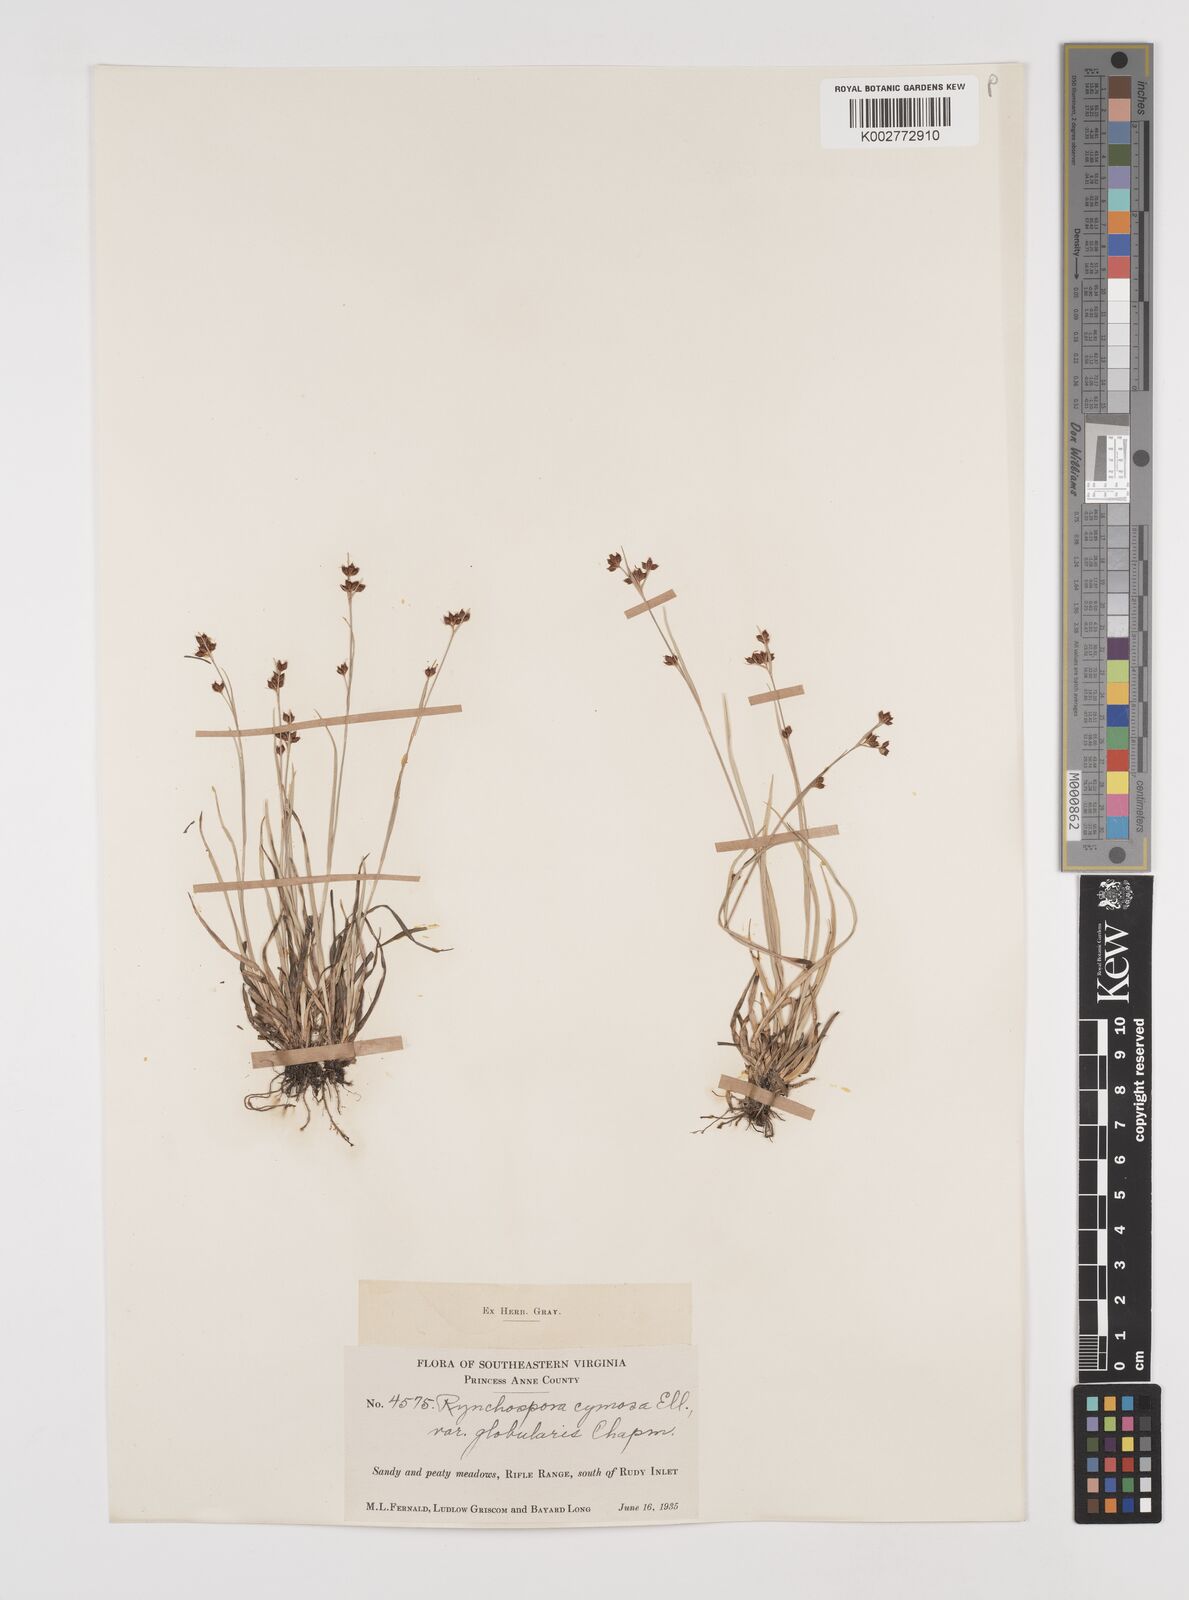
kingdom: Plantae
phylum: Tracheophyta
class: Liliopsida
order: Poales
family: Cyperaceae
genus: Scirpus
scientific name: Scirpus polyphyllus
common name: Leafy bulrush
